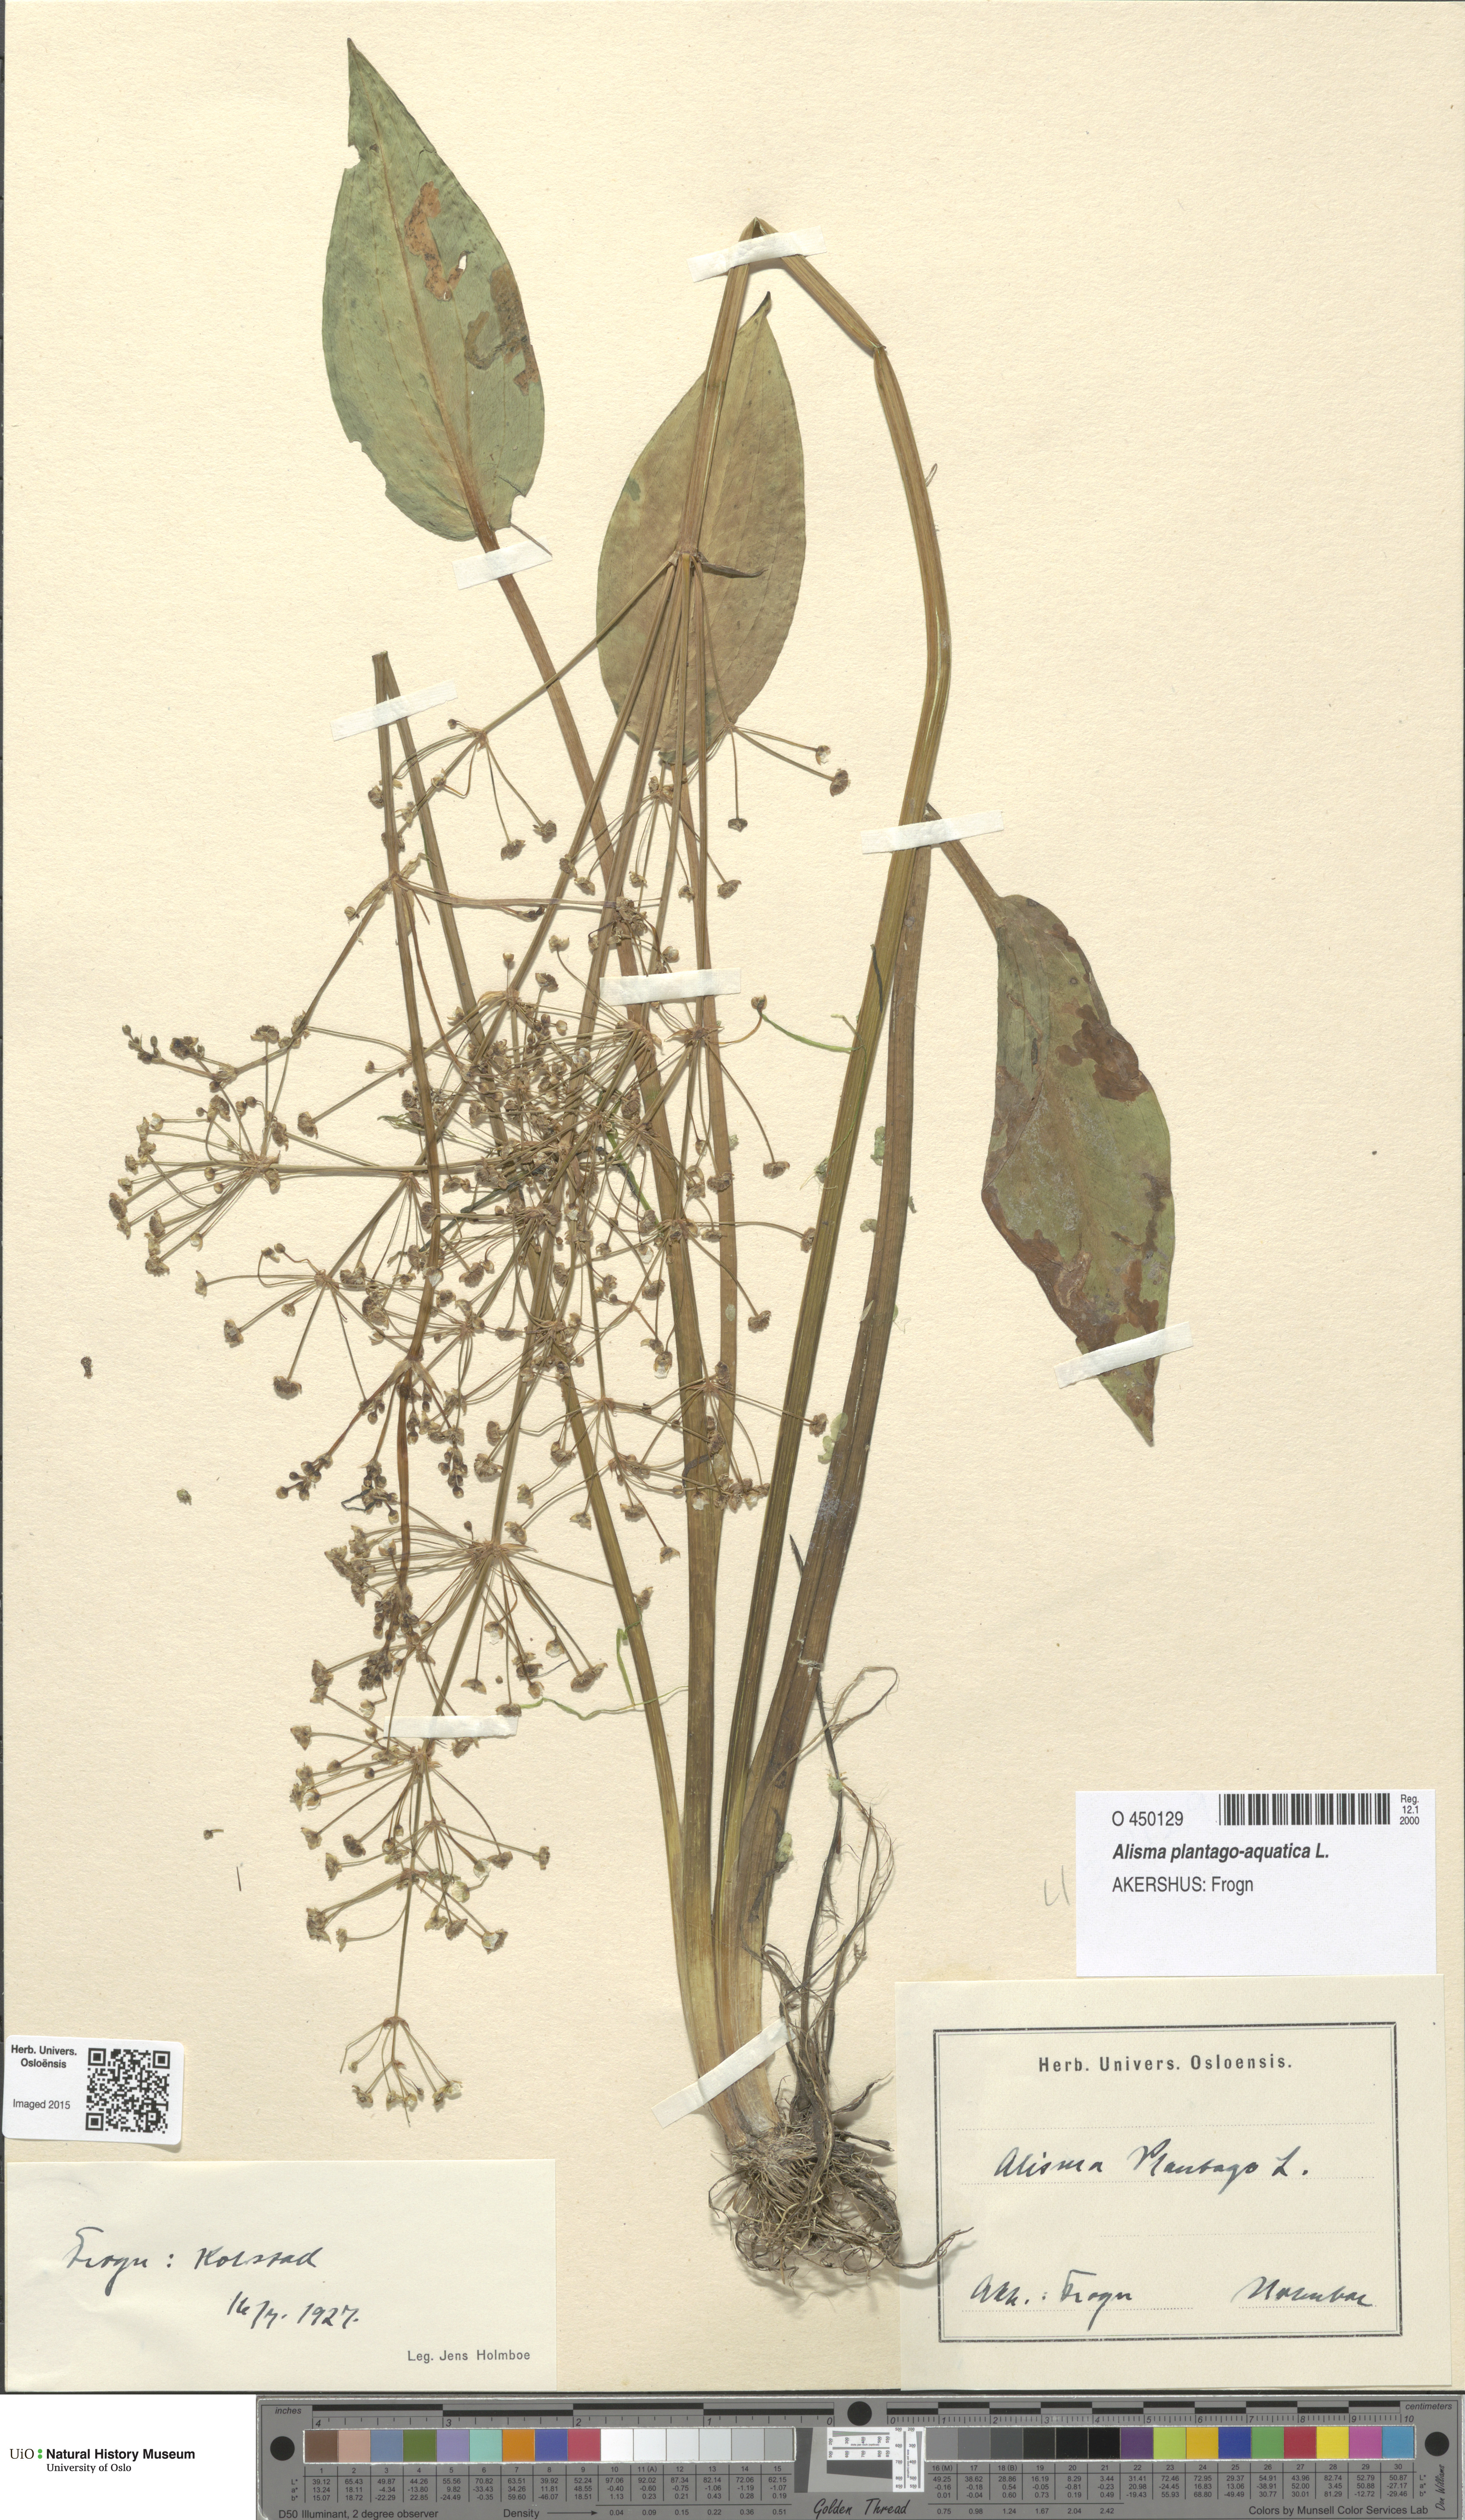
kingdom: Plantae
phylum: Tracheophyta
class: Liliopsida
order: Alismatales
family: Alismataceae
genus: Alisma
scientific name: Alisma plantago-aquatica
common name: Water-plantain
